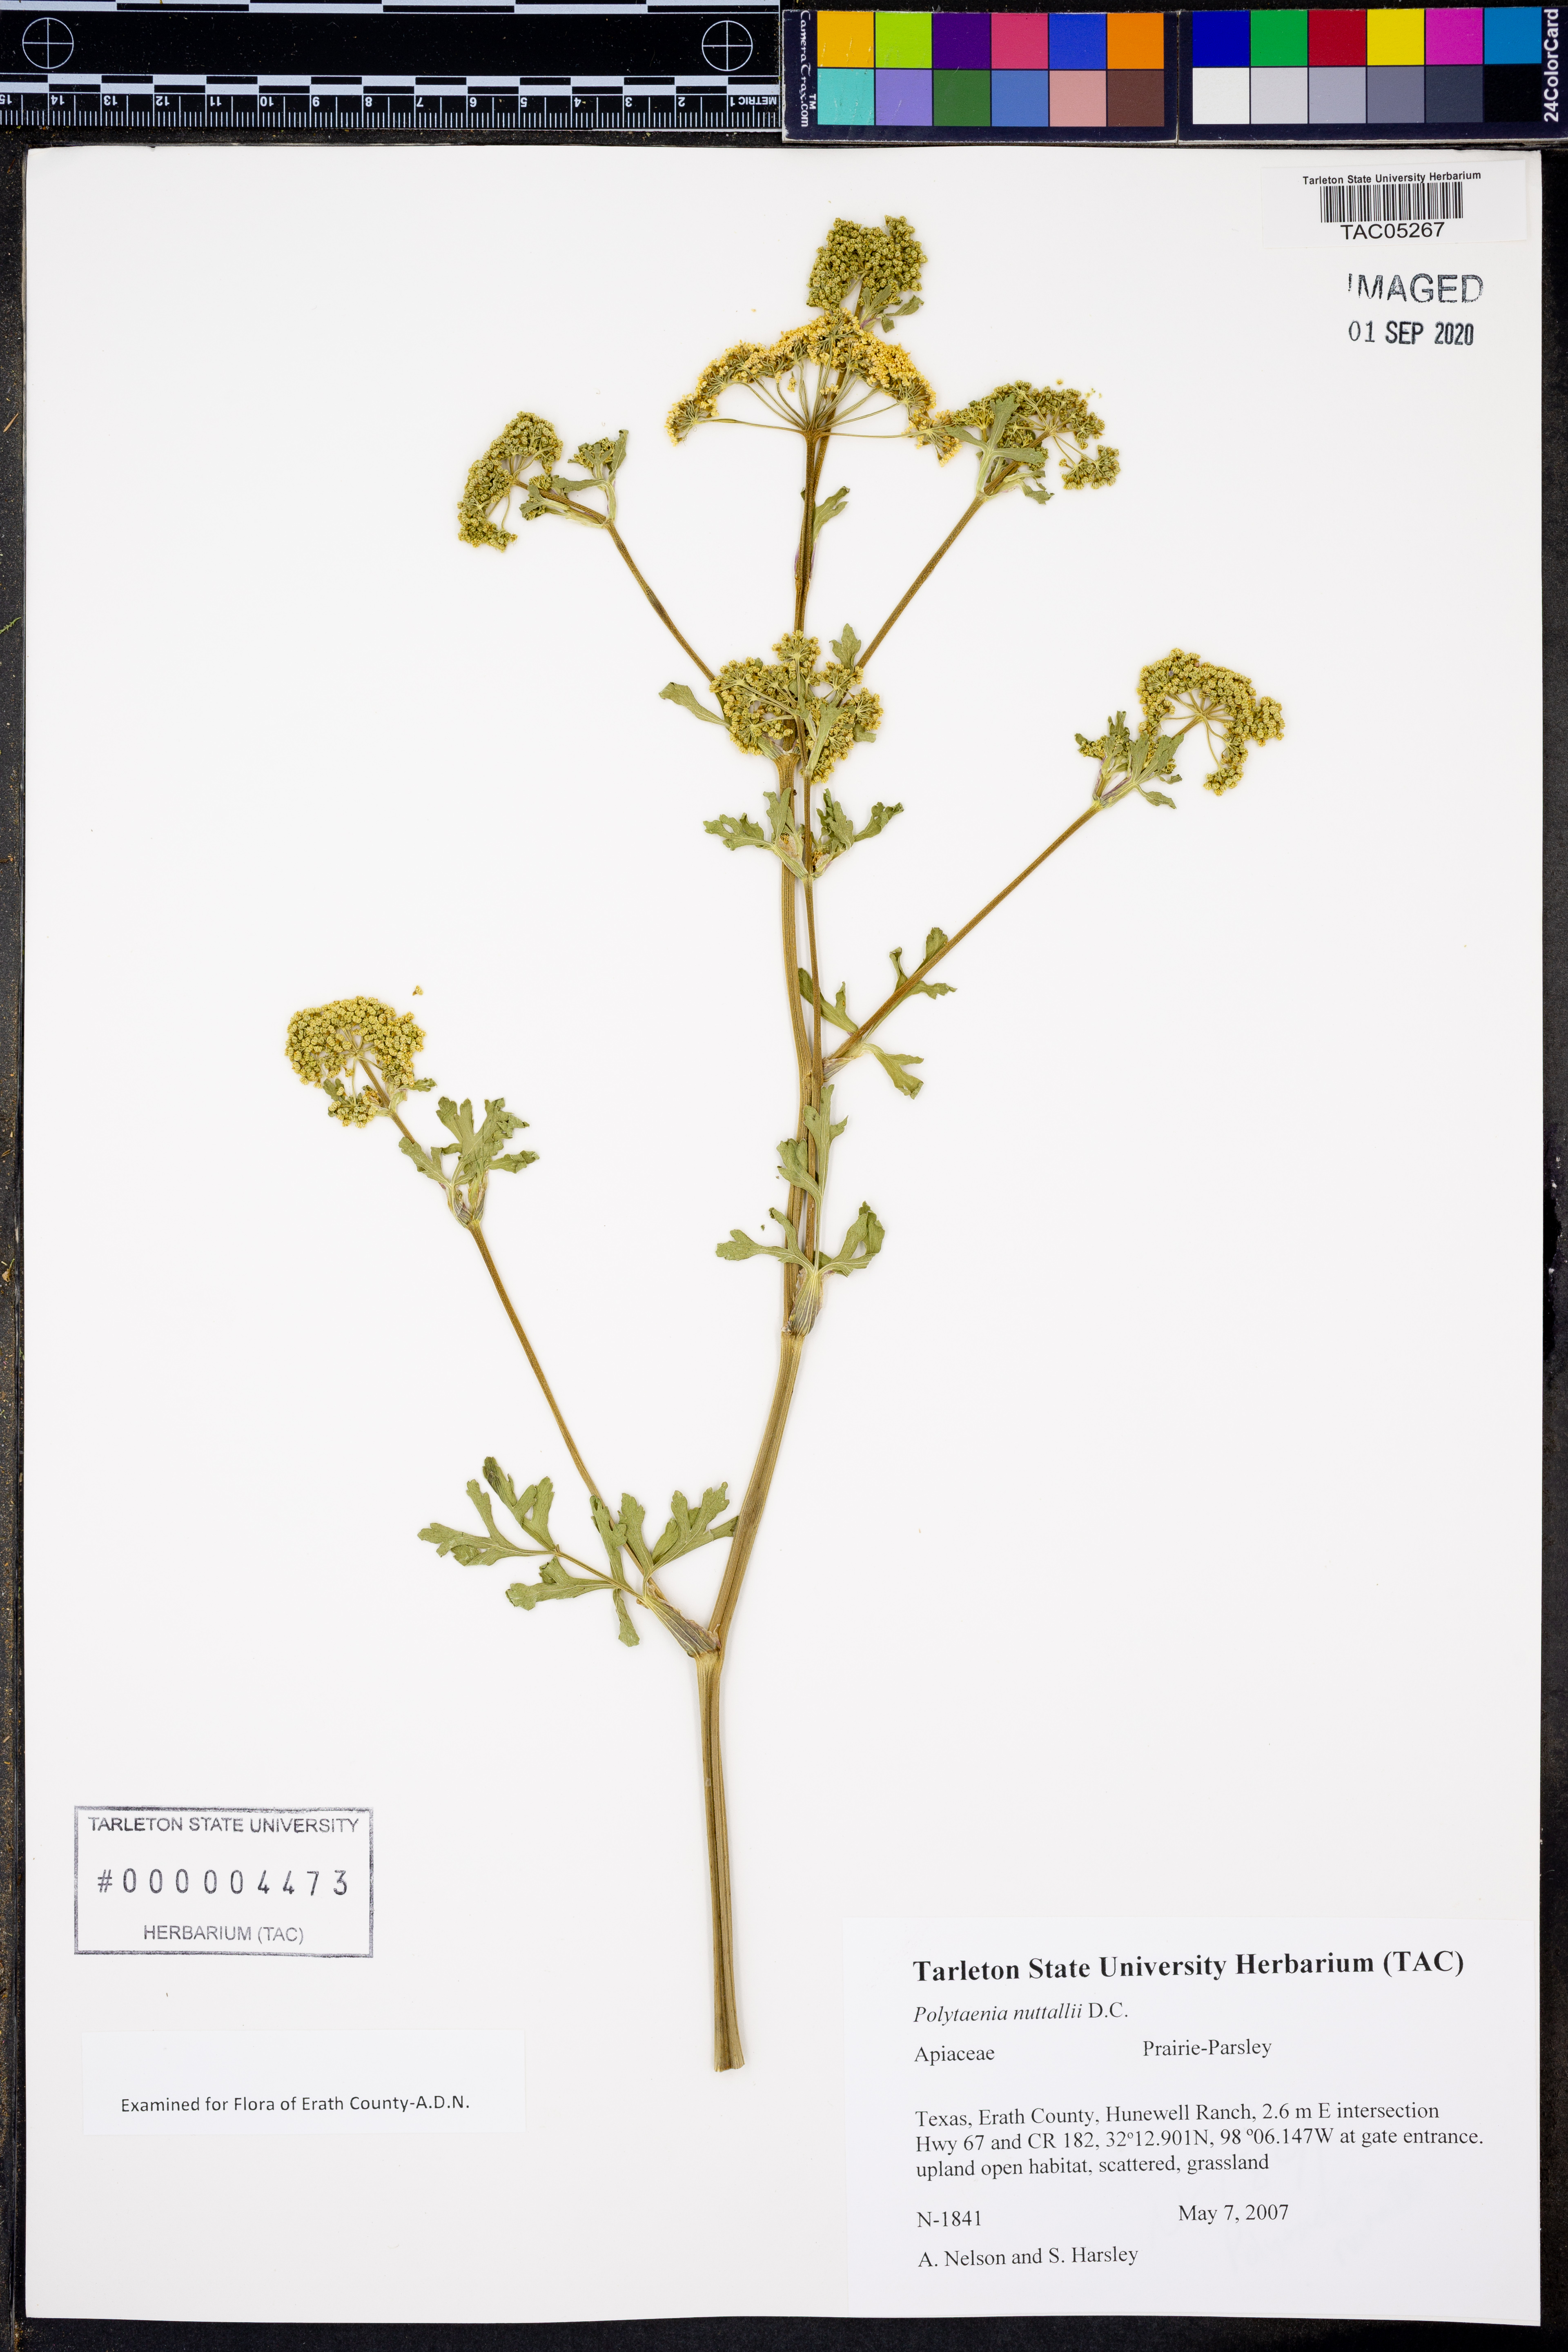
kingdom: Plantae
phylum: Tracheophyta
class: Magnoliopsida
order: Apiales
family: Apiaceae
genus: Polytaenia
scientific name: Polytaenia nuttallii
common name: Prairie-parsley
